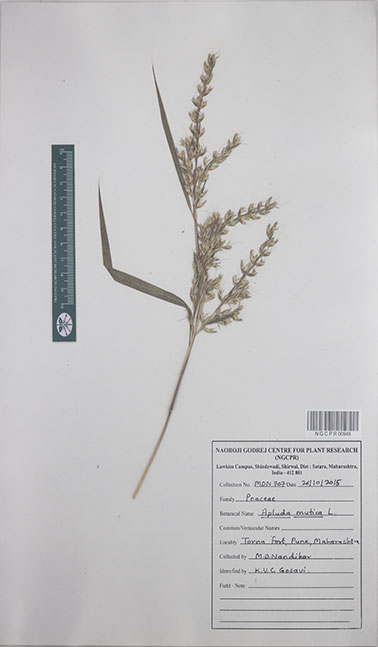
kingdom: Plantae
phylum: Tracheophyta
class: Liliopsida
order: Poales
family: Poaceae
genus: Apluda
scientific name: Apluda mutica
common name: Mauritian grass
